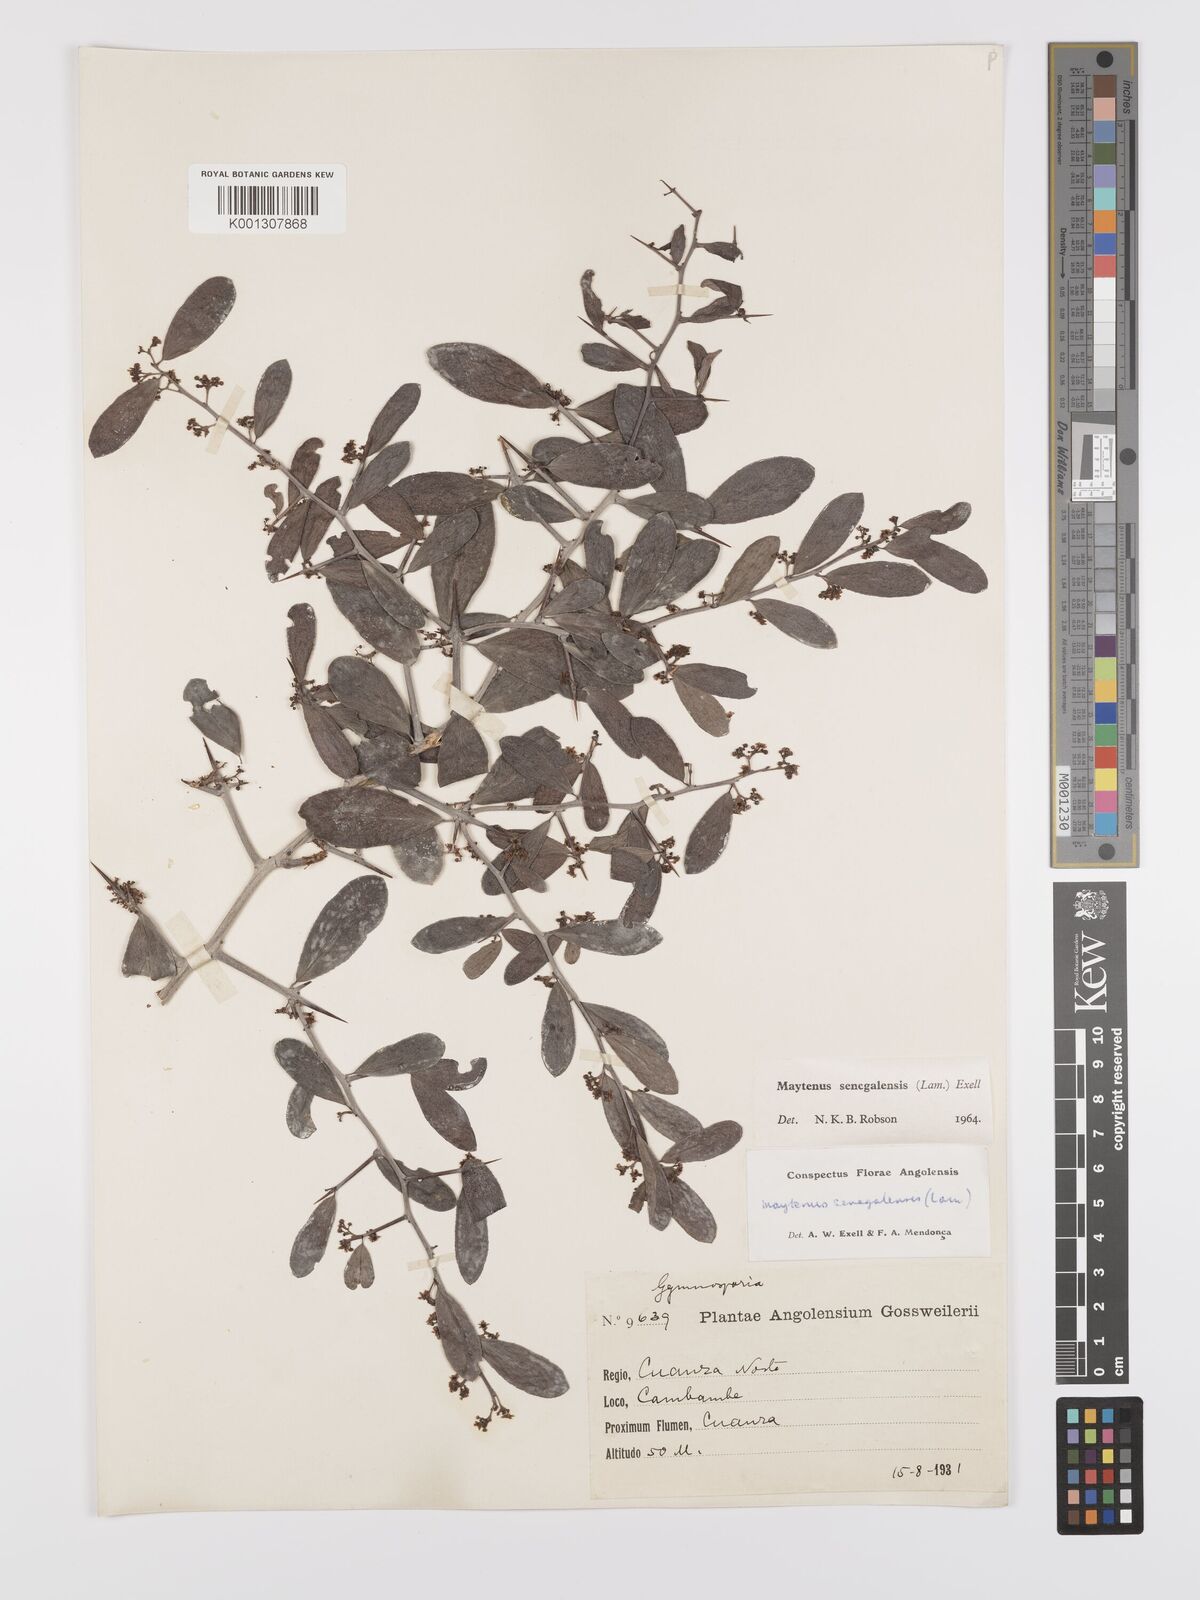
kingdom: Plantae
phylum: Tracheophyta
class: Magnoliopsida
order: Celastrales
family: Celastraceae
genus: Gymnosporia
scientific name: Gymnosporia senegalensis
